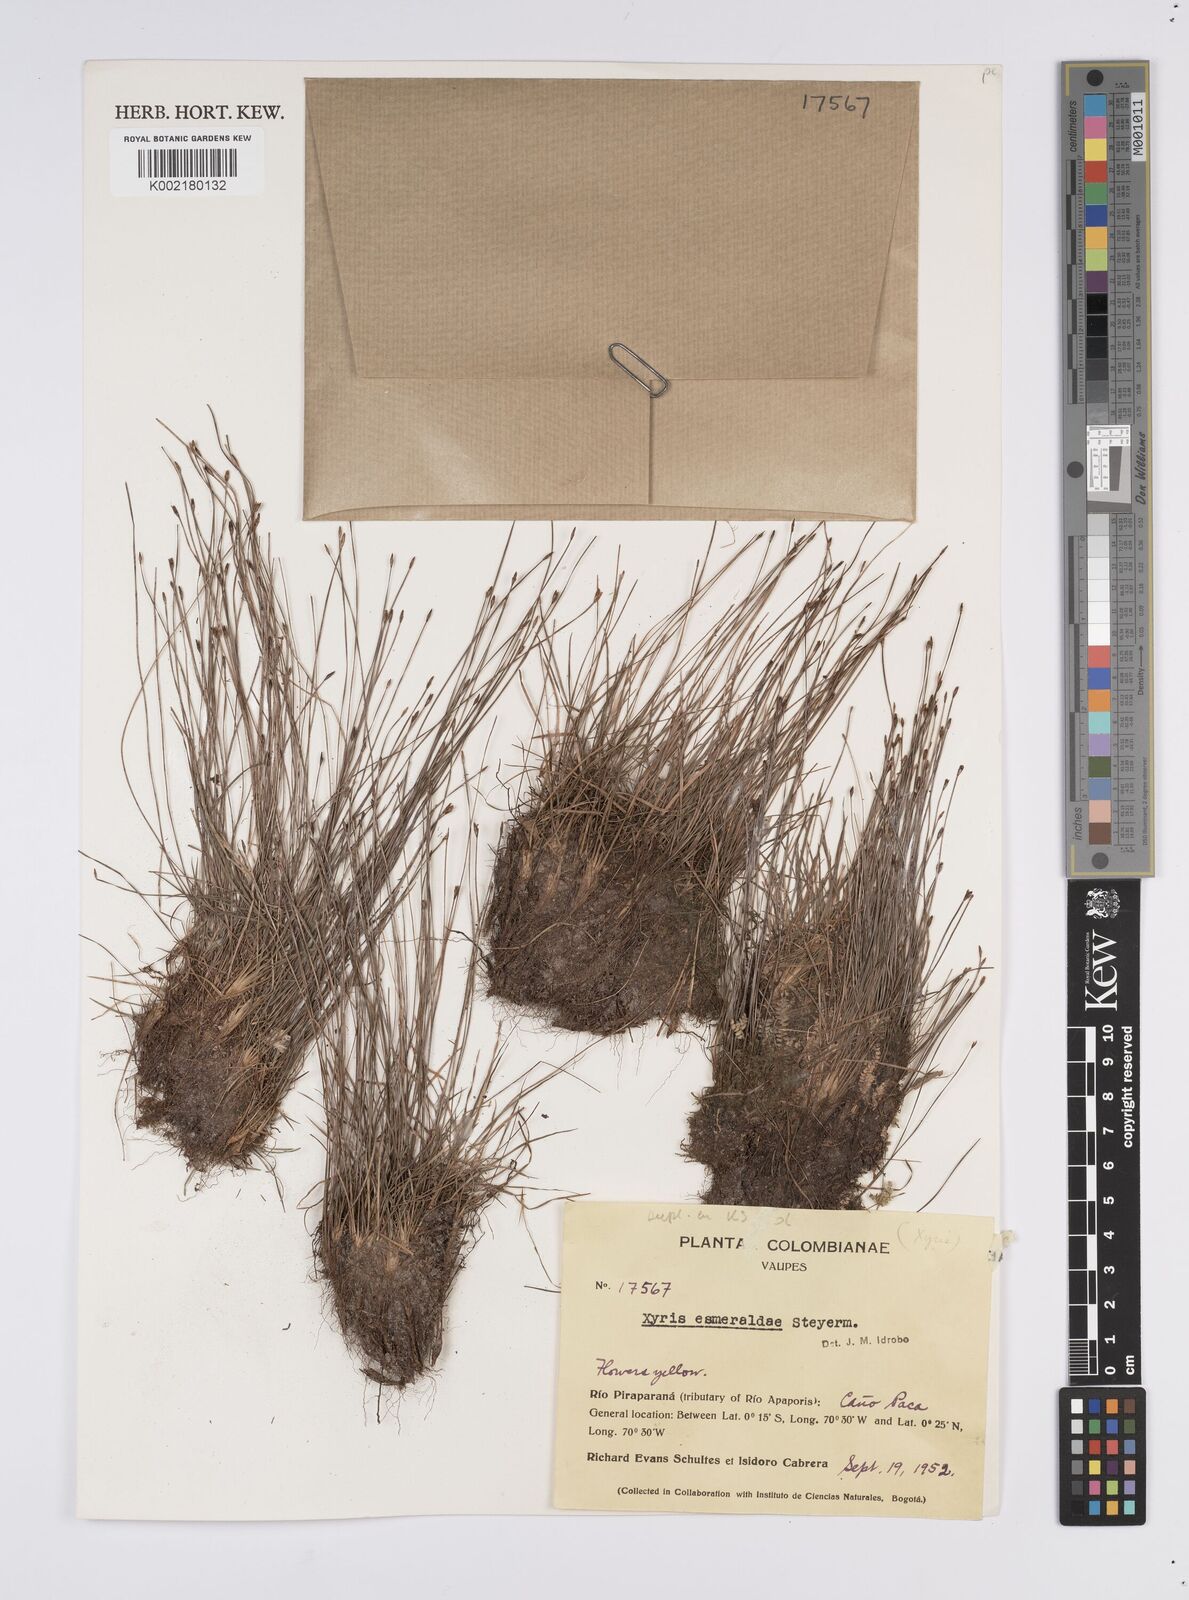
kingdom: Plantae
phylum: Tracheophyta
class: Liliopsida
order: Poales
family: Xyridaceae
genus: Xyris
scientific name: Xyris esmeraldae
